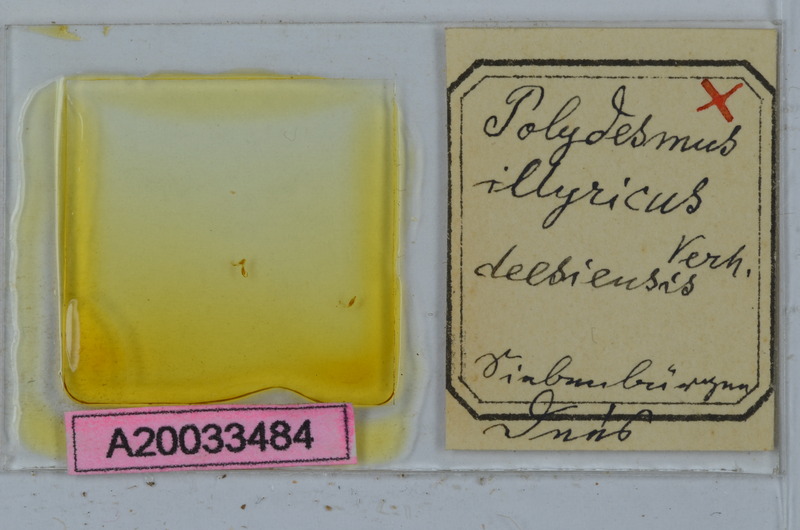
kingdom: Animalia
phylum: Arthropoda
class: Diplopoda
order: Polydesmida
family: Polydesmidae
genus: Polydesmus
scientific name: Polydesmus complanatus
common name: Flat-backed millipede
